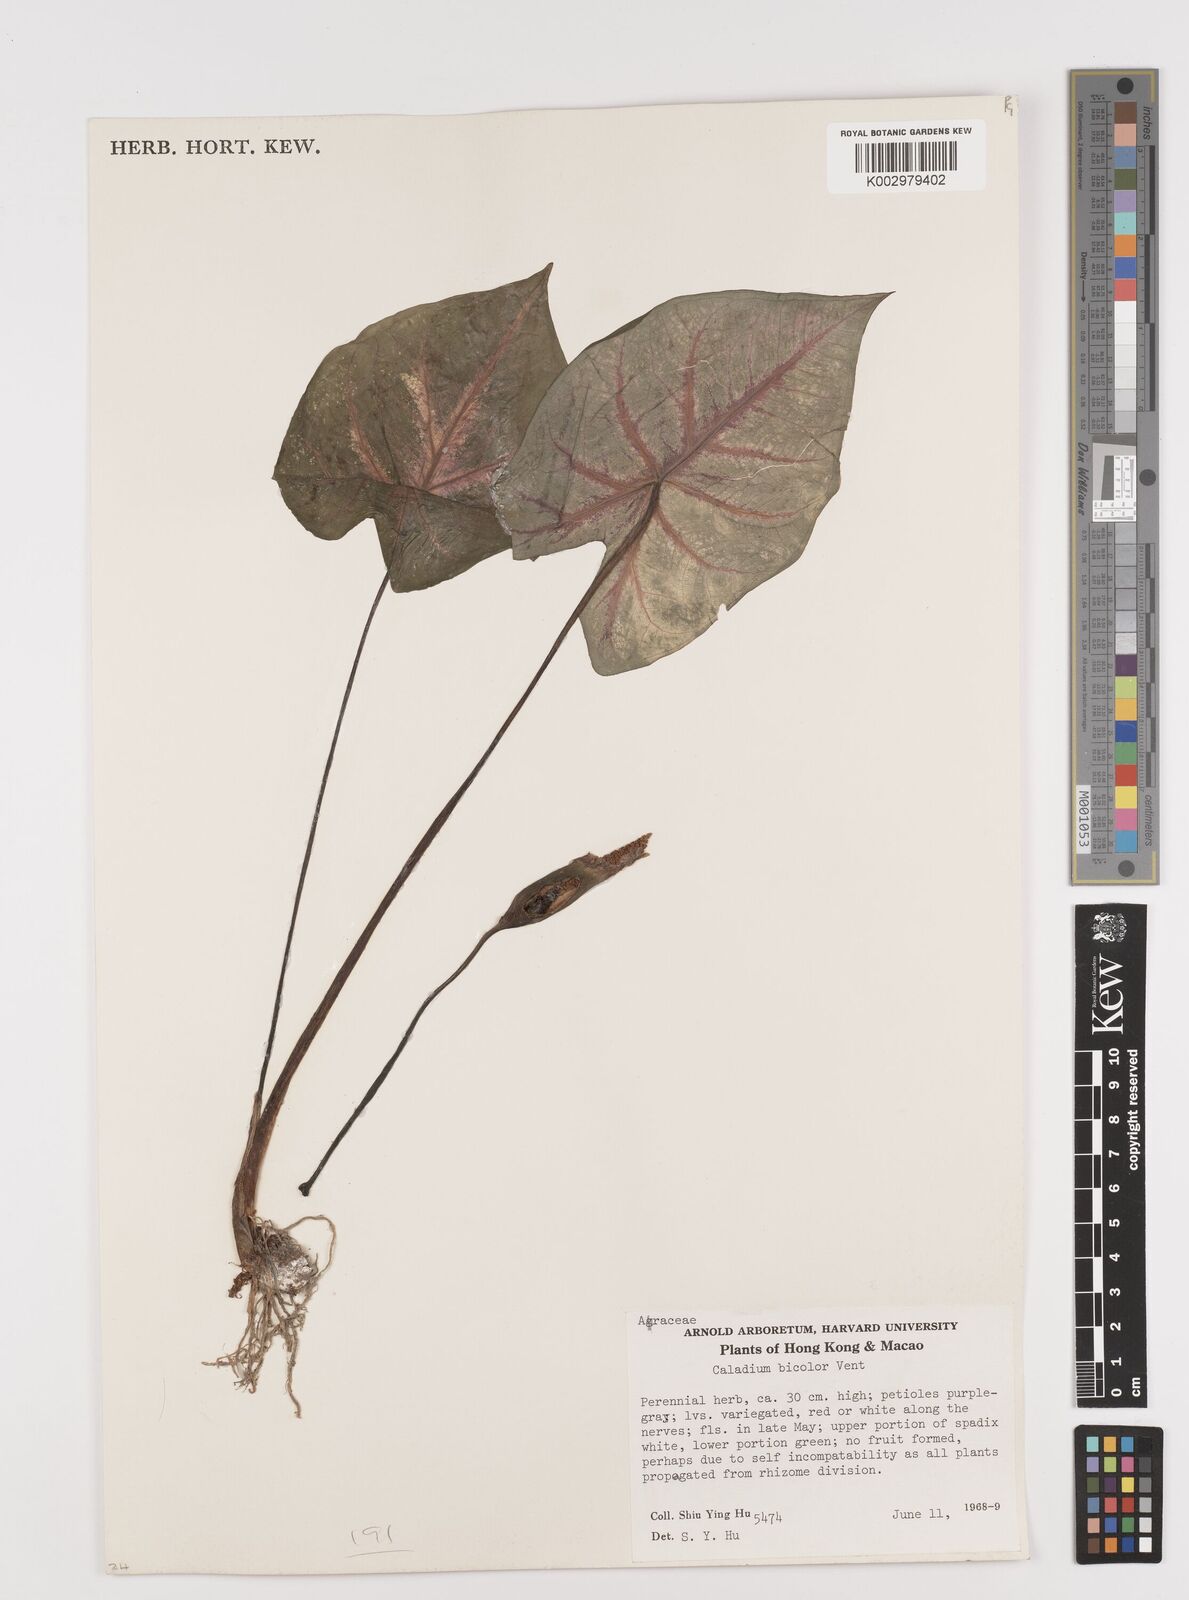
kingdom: Plantae
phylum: Tracheophyta
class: Liliopsida
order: Alismatales
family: Araceae
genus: Caladium
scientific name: Caladium bicolor
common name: Artist's pallet
